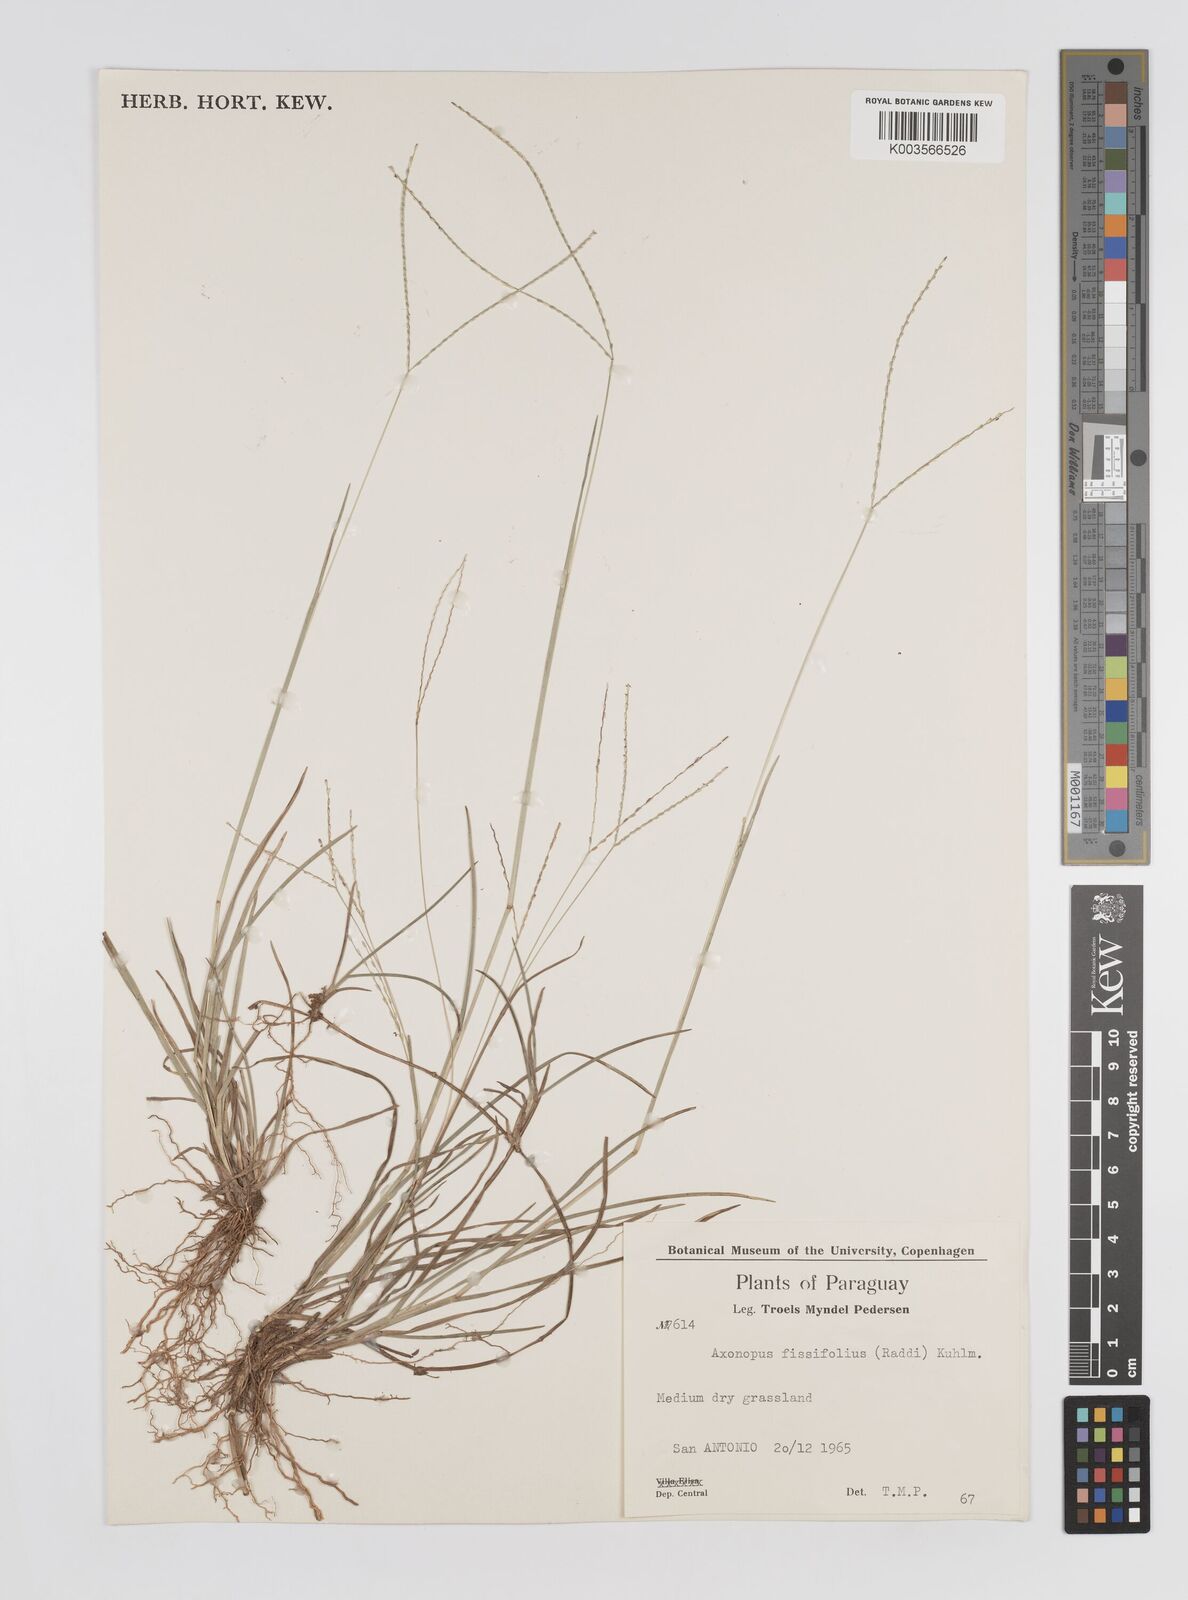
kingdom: Plantae
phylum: Tracheophyta
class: Liliopsida
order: Poales
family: Poaceae
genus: Axonopus
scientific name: Axonopus fissifolius
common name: Common carpetgrass
